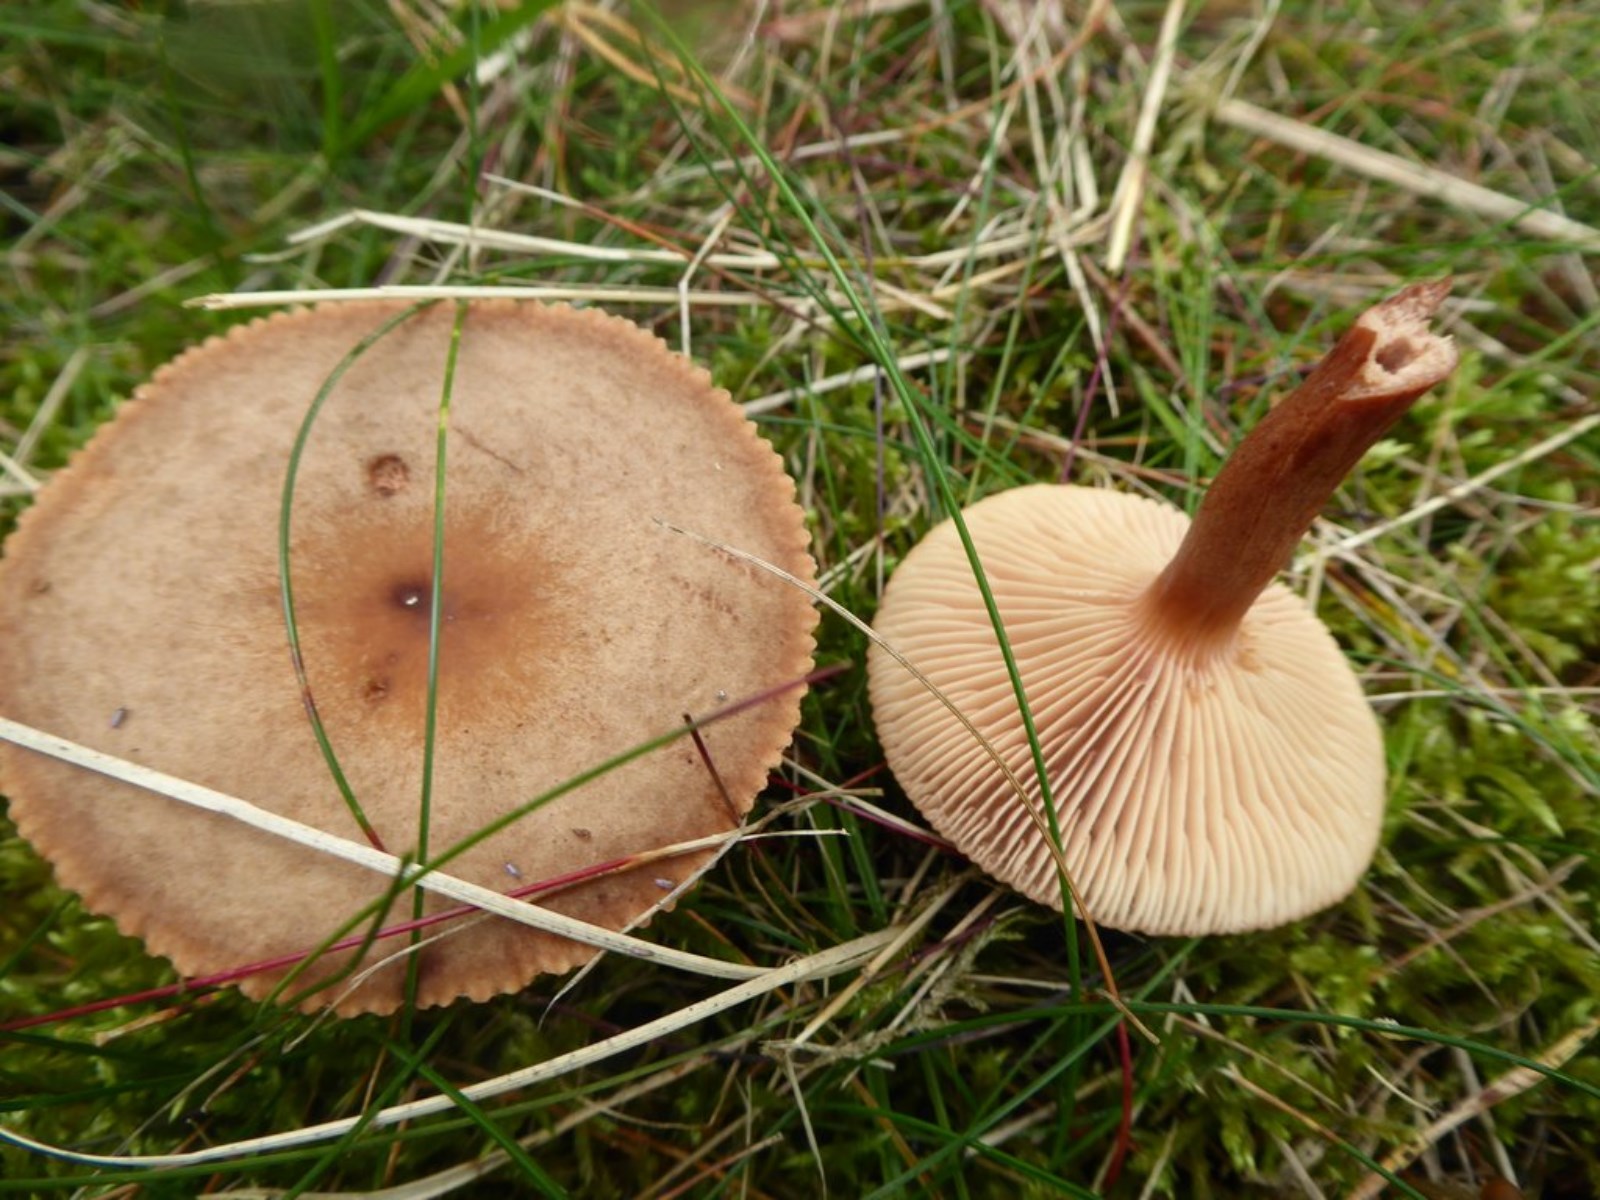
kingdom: Fungi
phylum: Basidiomycota
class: Agaricomycetes
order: Russulales
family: Russulaceae
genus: Lactarius
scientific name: Lactarius
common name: mælkehat
